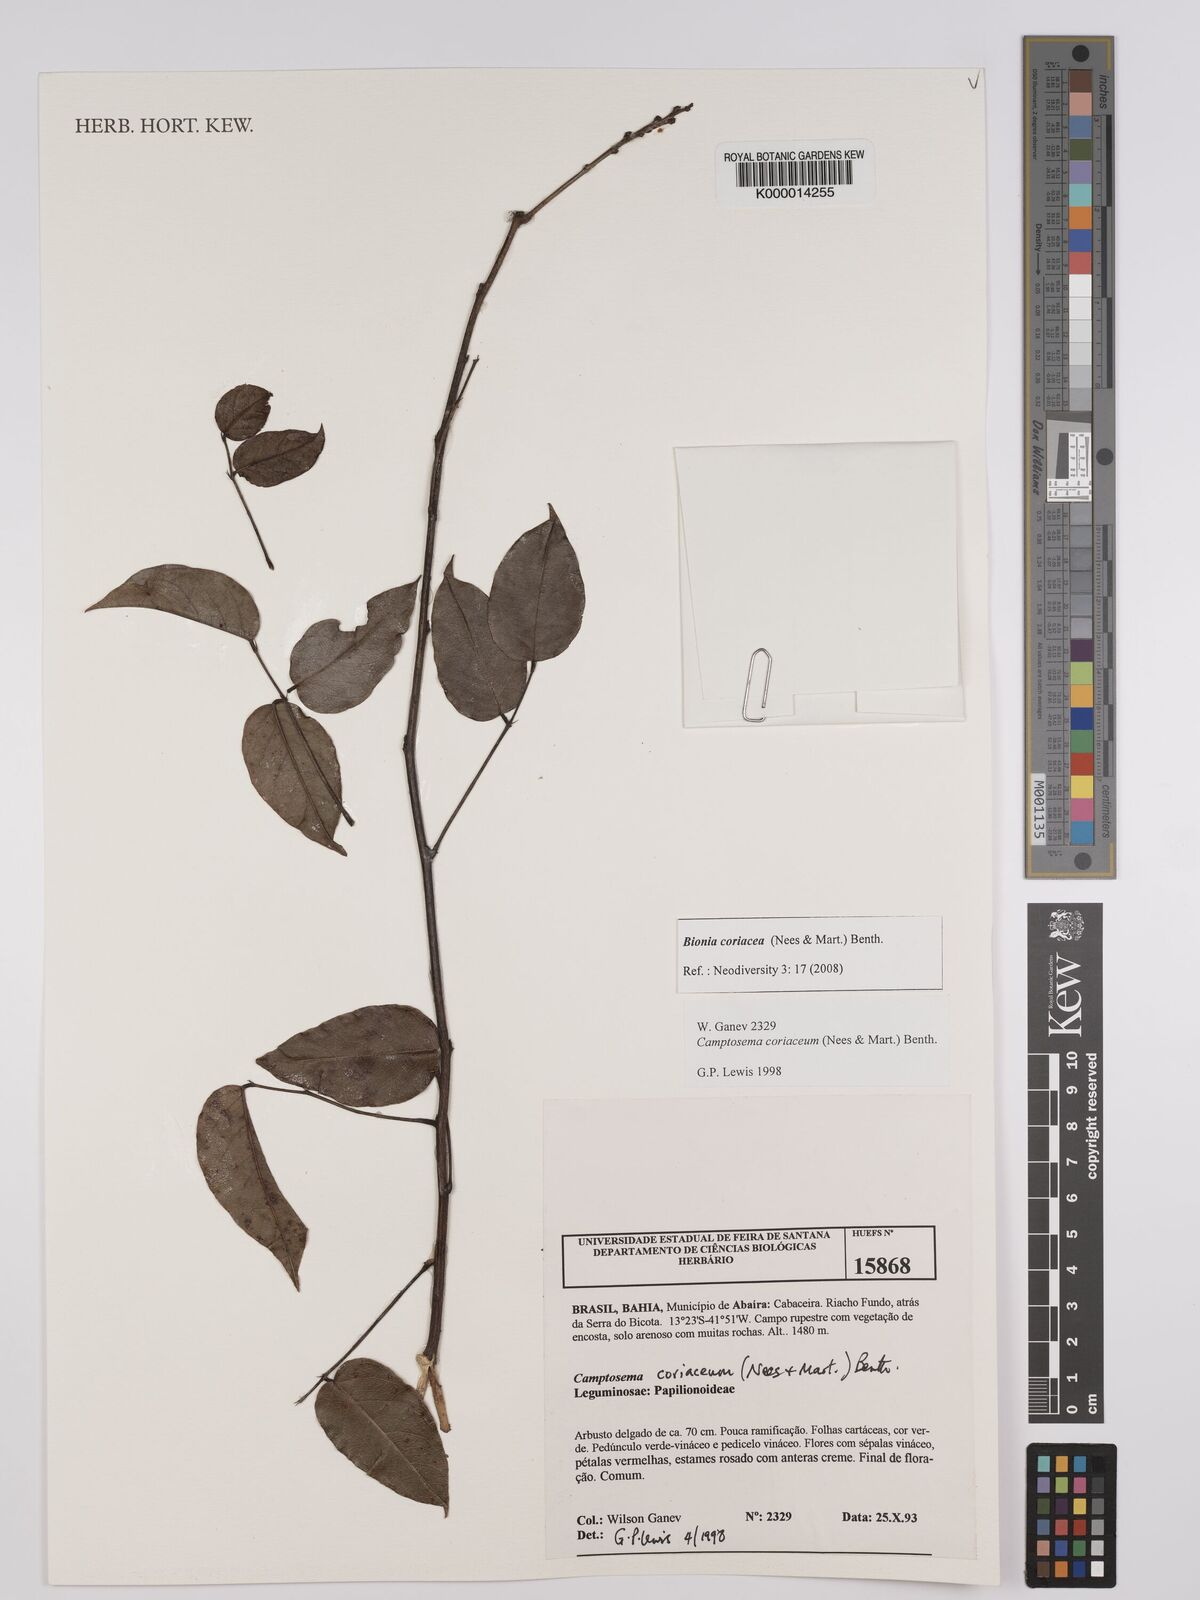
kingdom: Plantae
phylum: Tracheophyta
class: Magnoliopsida
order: Fabales
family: Fabaceae
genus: Camptosema
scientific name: Camptosema coriaceum
